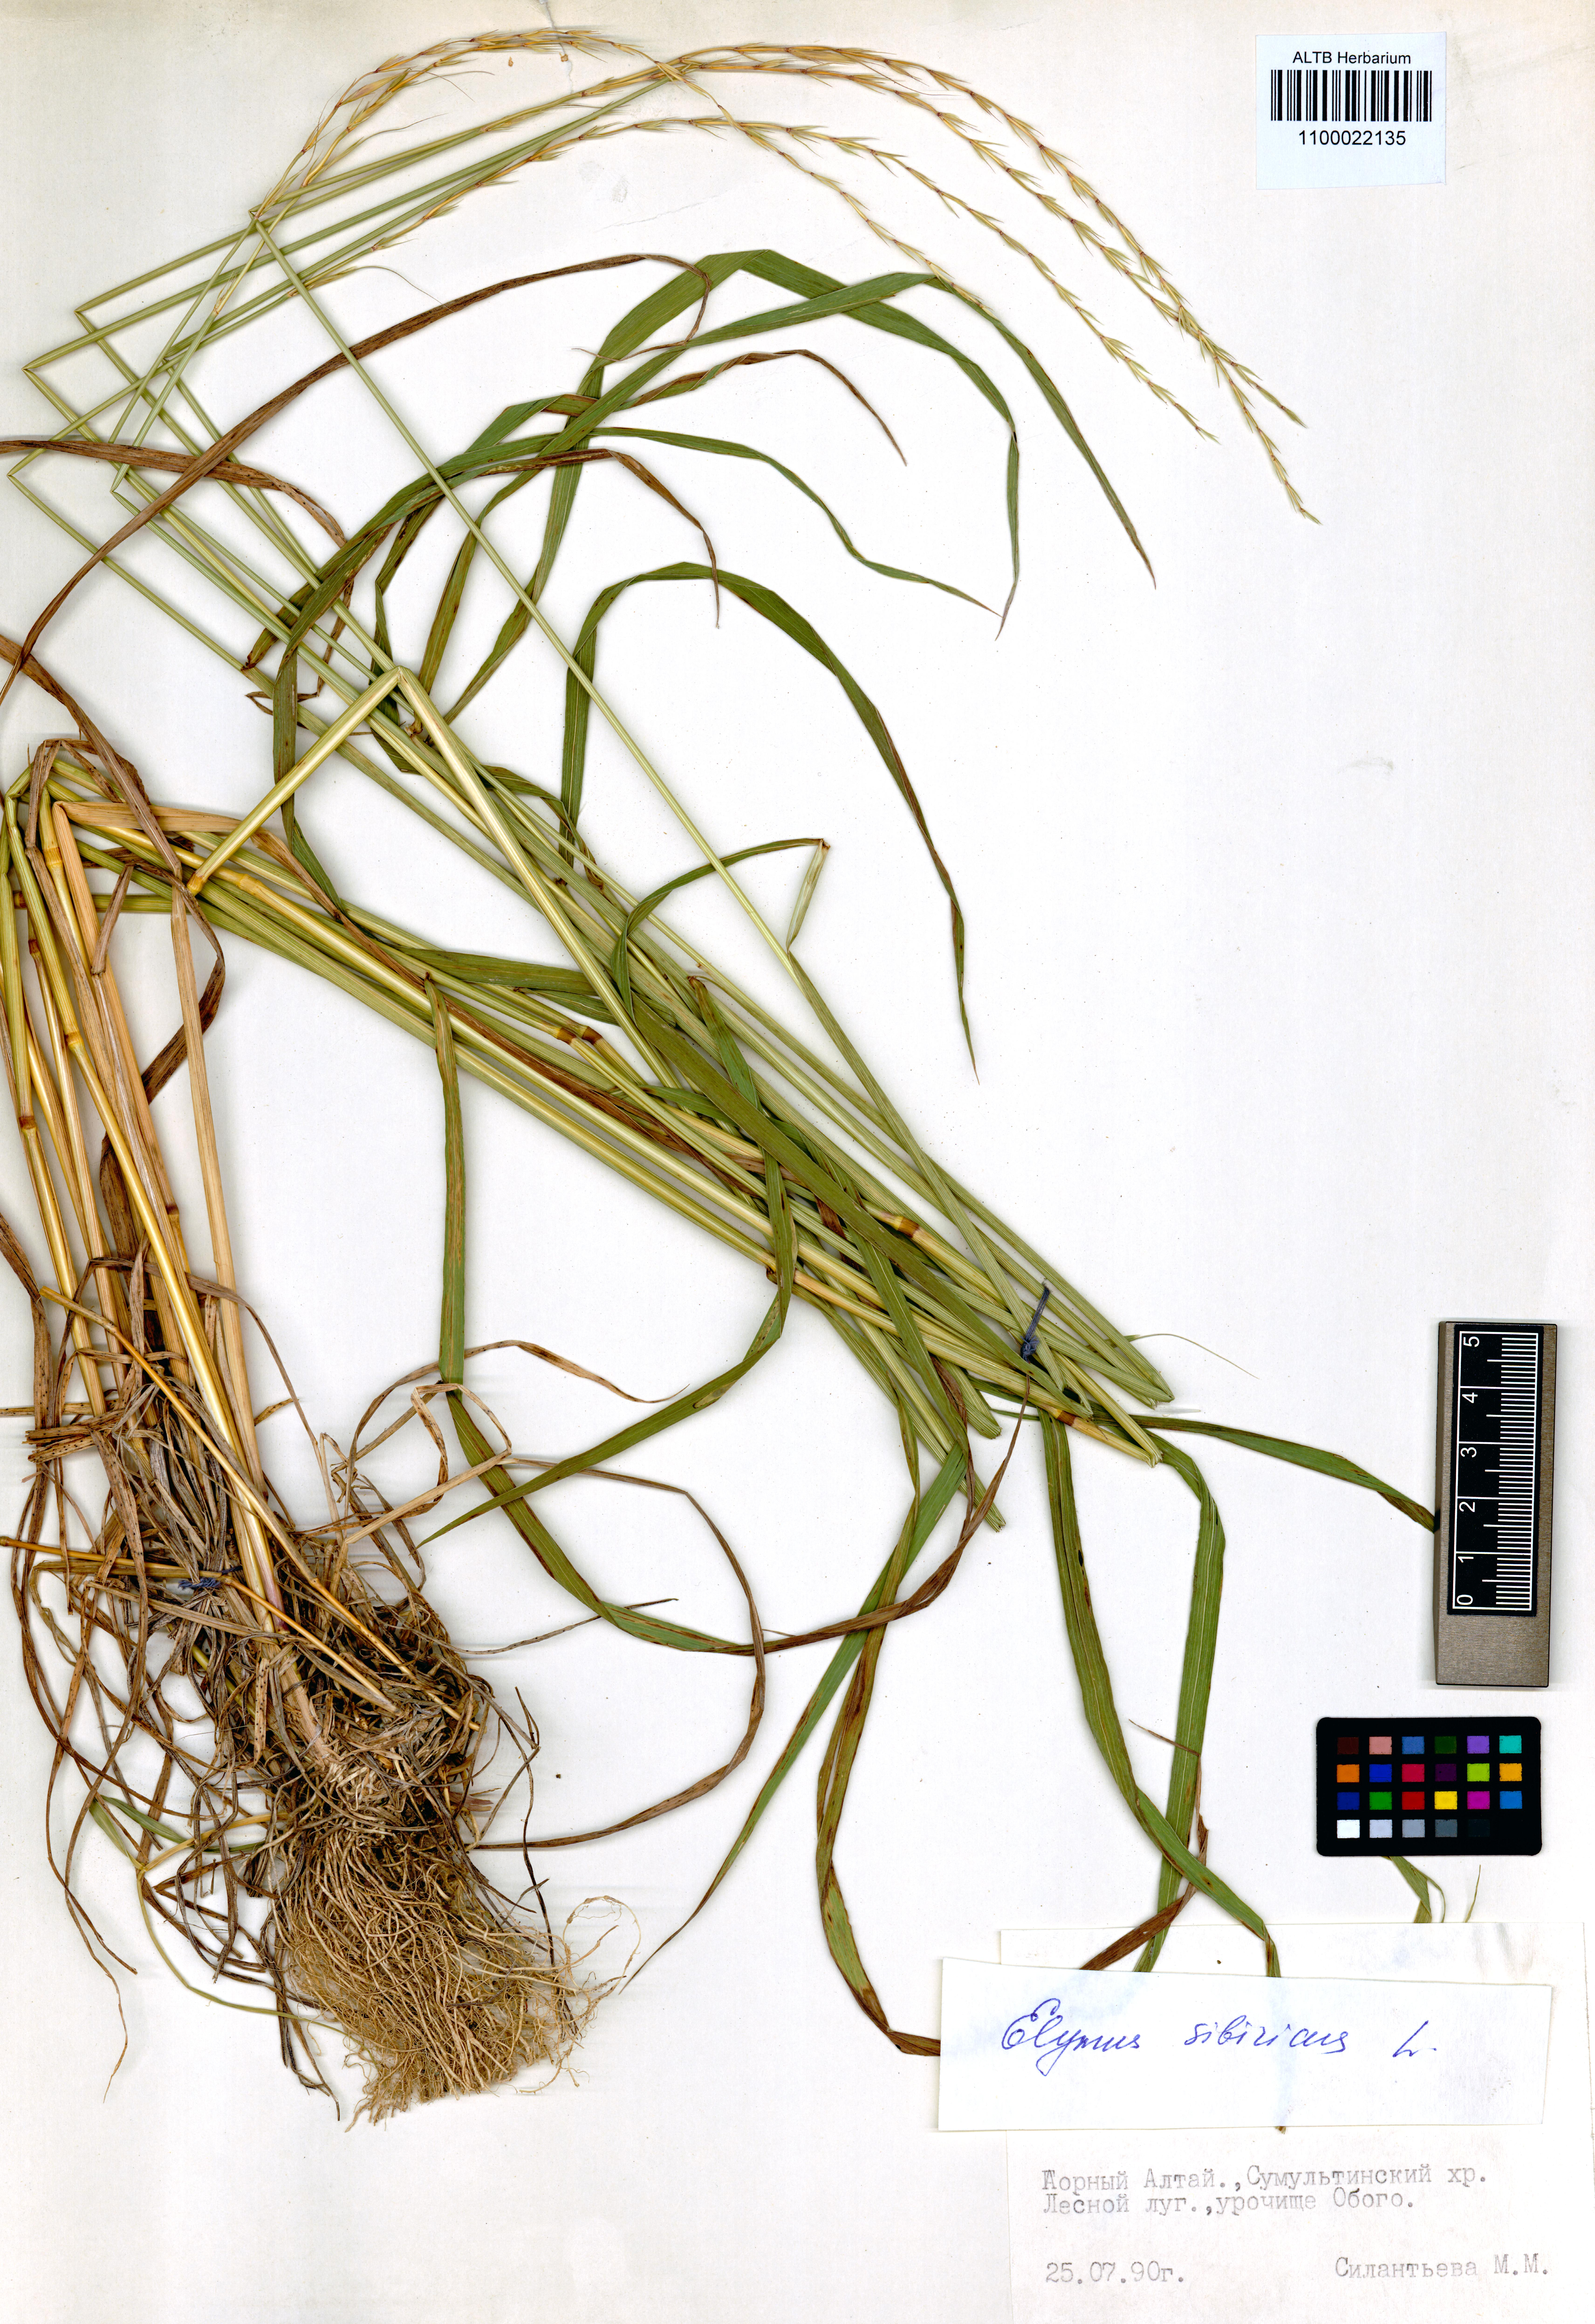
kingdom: Plantae
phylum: Tracheophyta
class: Liliopsida
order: Poales
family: Poaceae
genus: Elymus
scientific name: Elymus sibiricus
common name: Siberian wildrye
